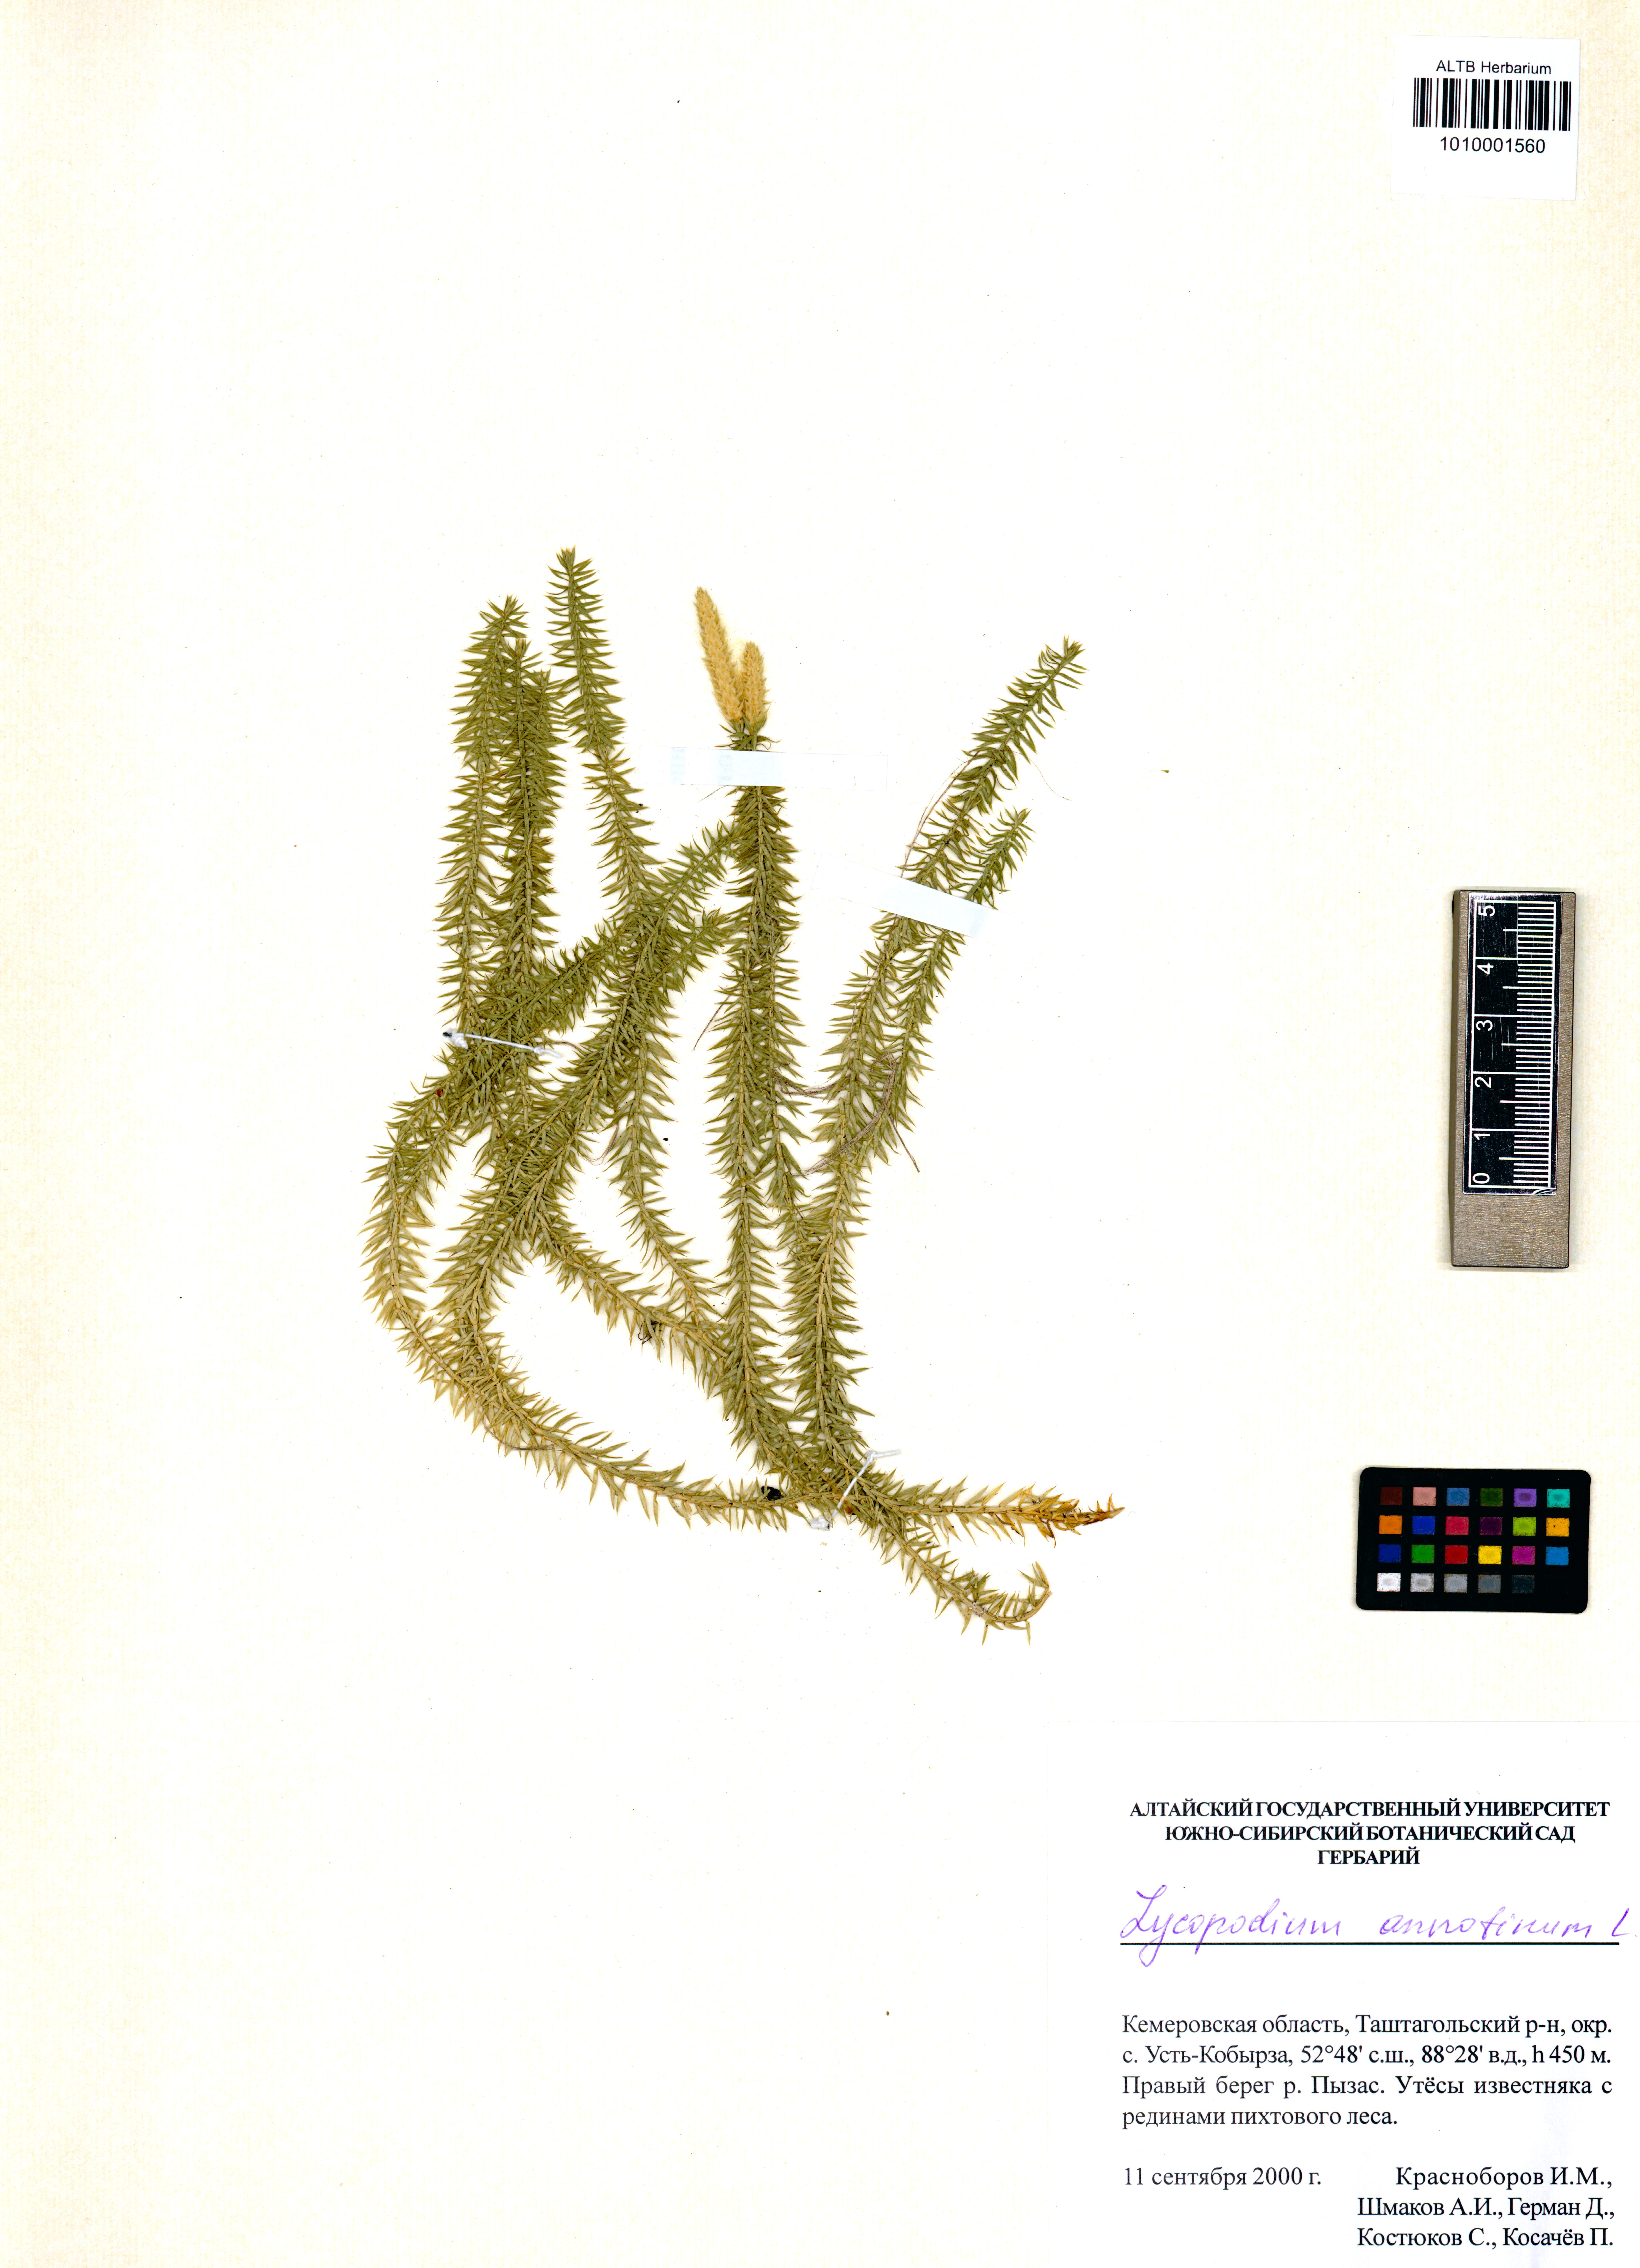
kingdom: Plantae
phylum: Tracheophyta
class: Lycopodiopsida
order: Lycopodiales
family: Lycopodiaceae
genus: Spinulum
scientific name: Spinulum annotinum
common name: Interrupted club-moss
